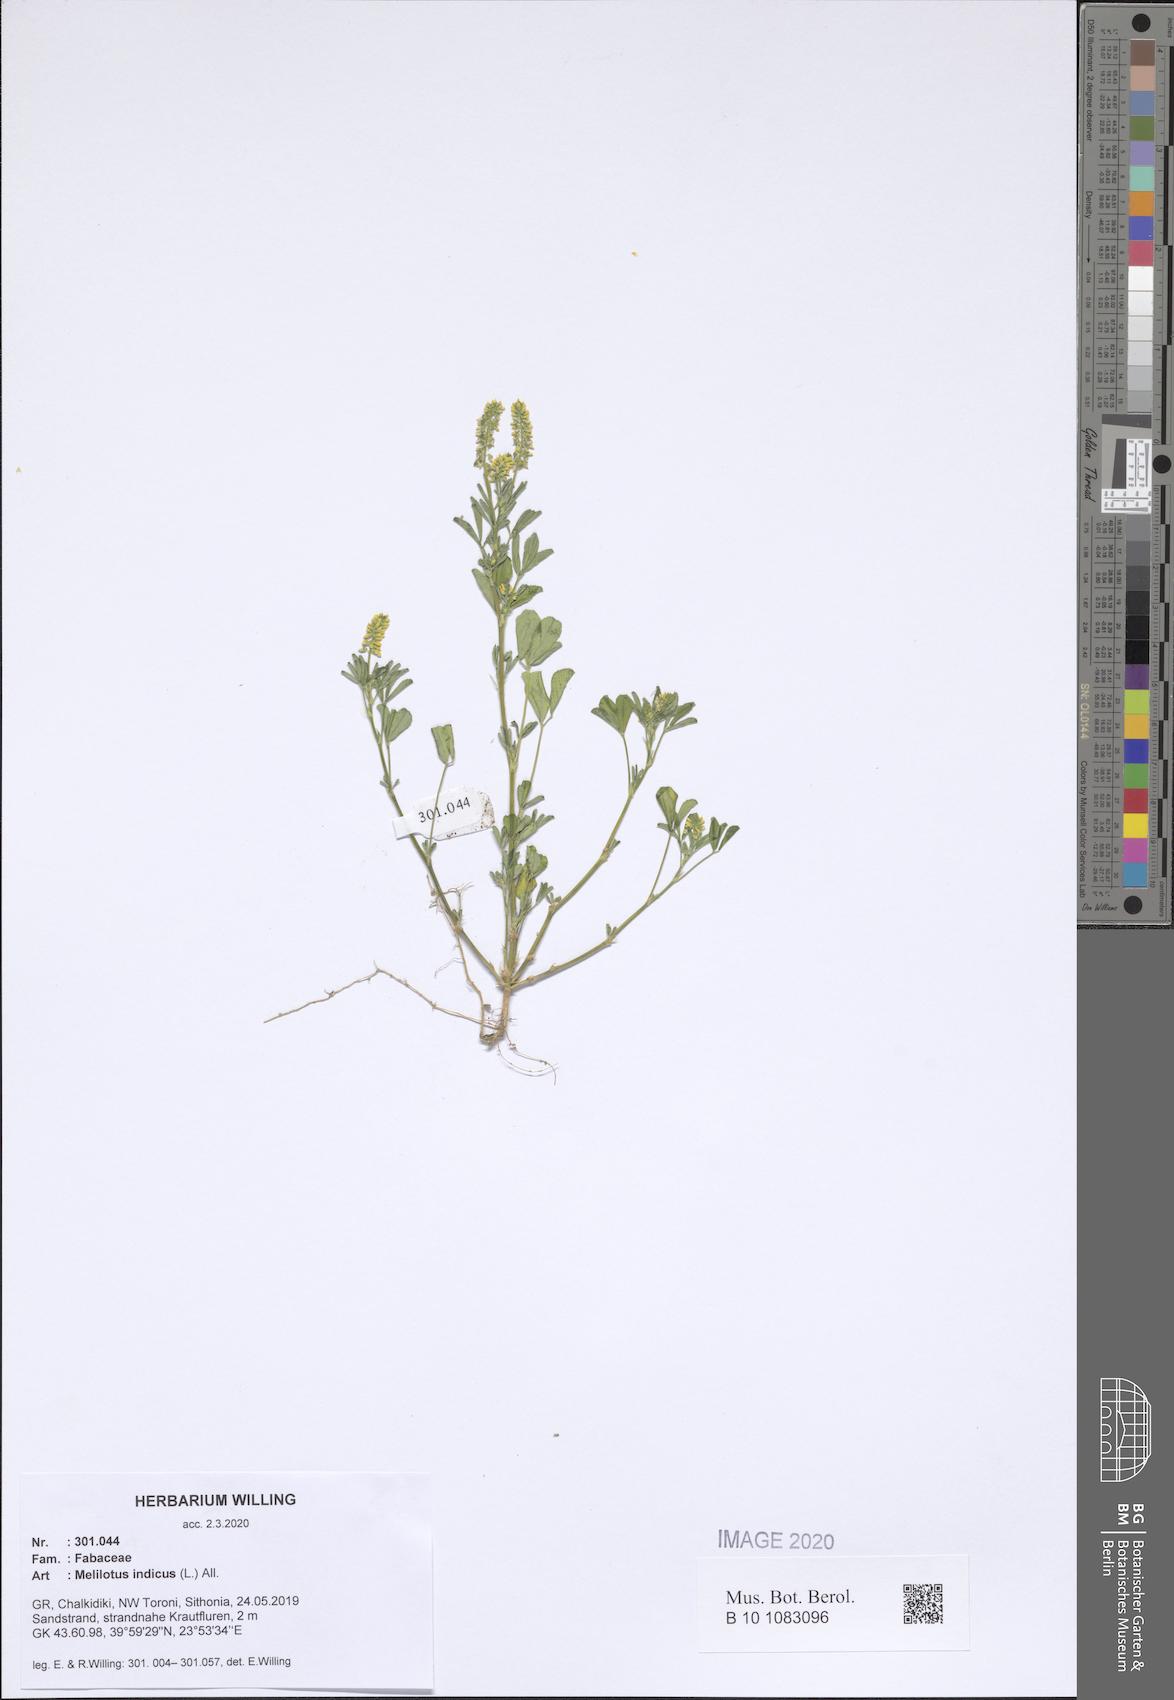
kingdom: Plantae
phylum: Tracheophyta
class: Magnoliopsida
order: Fabales
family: Fabaceae
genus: Melilotus
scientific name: Melilotus indicus
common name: Small melilot
